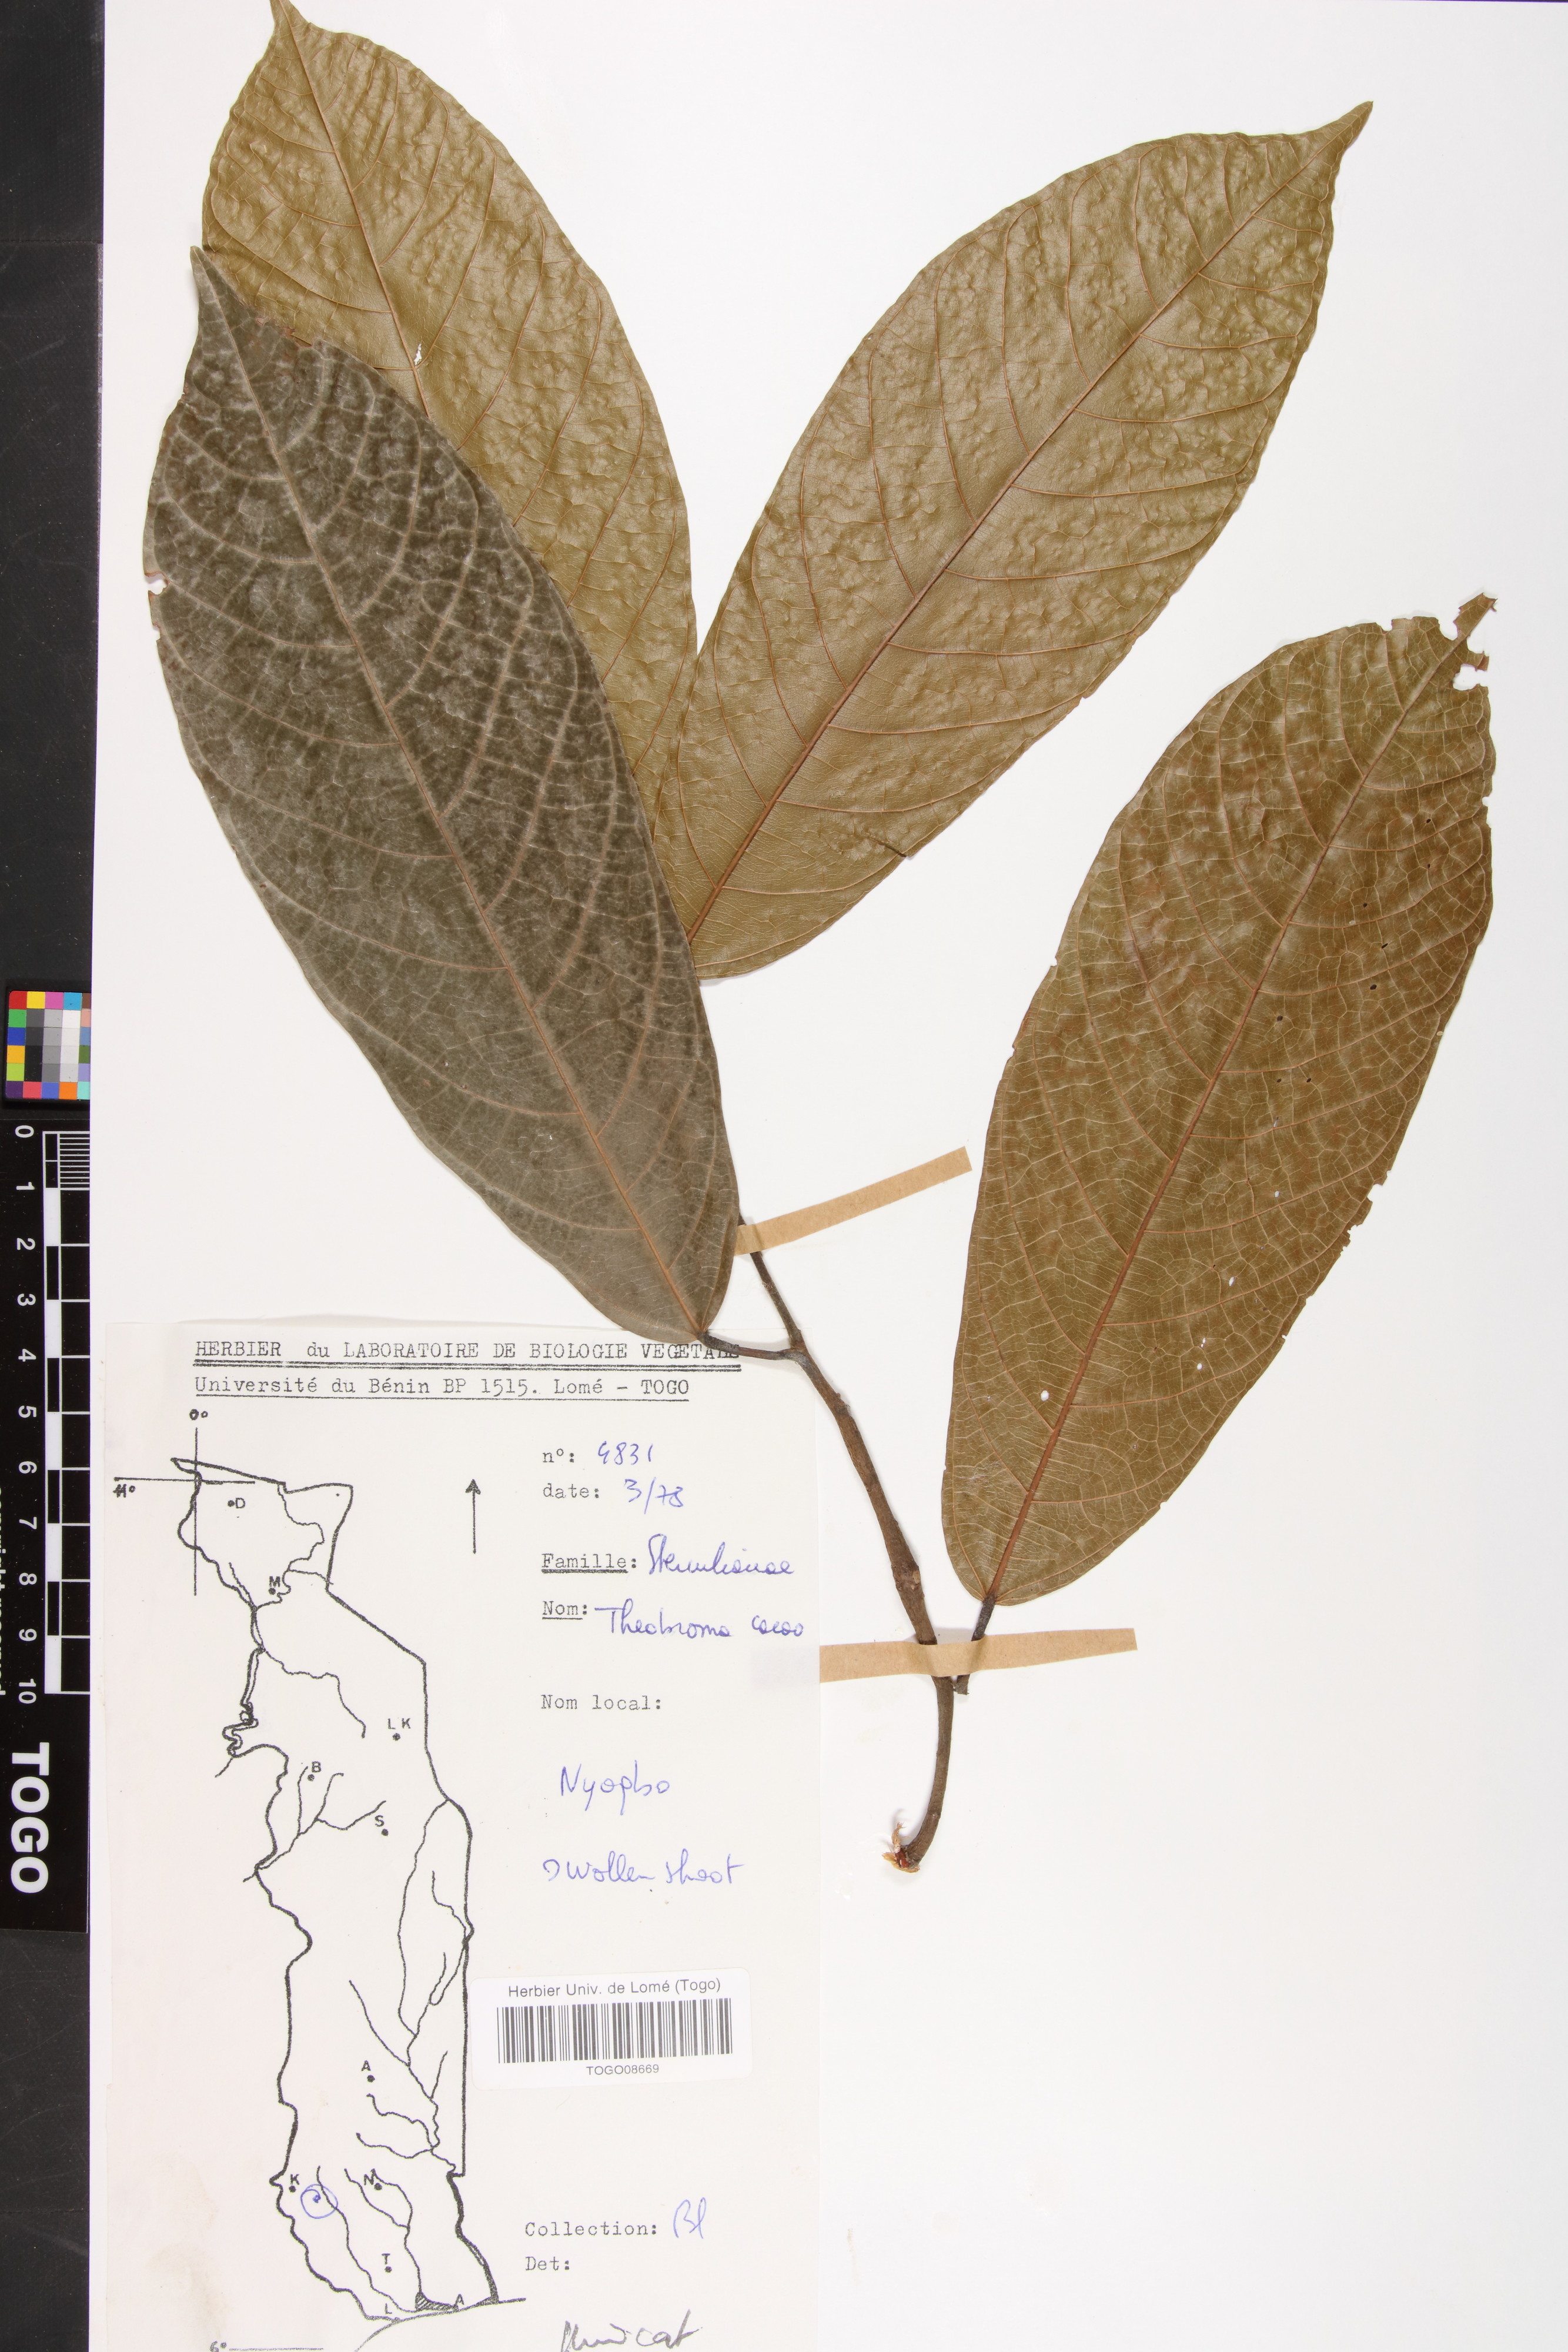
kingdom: Plantae
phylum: Tracheophyta
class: Magnoliopsida
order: Malvales
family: Malvaceae
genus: Theobroma
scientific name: Theobroma cacao
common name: Cocoa
